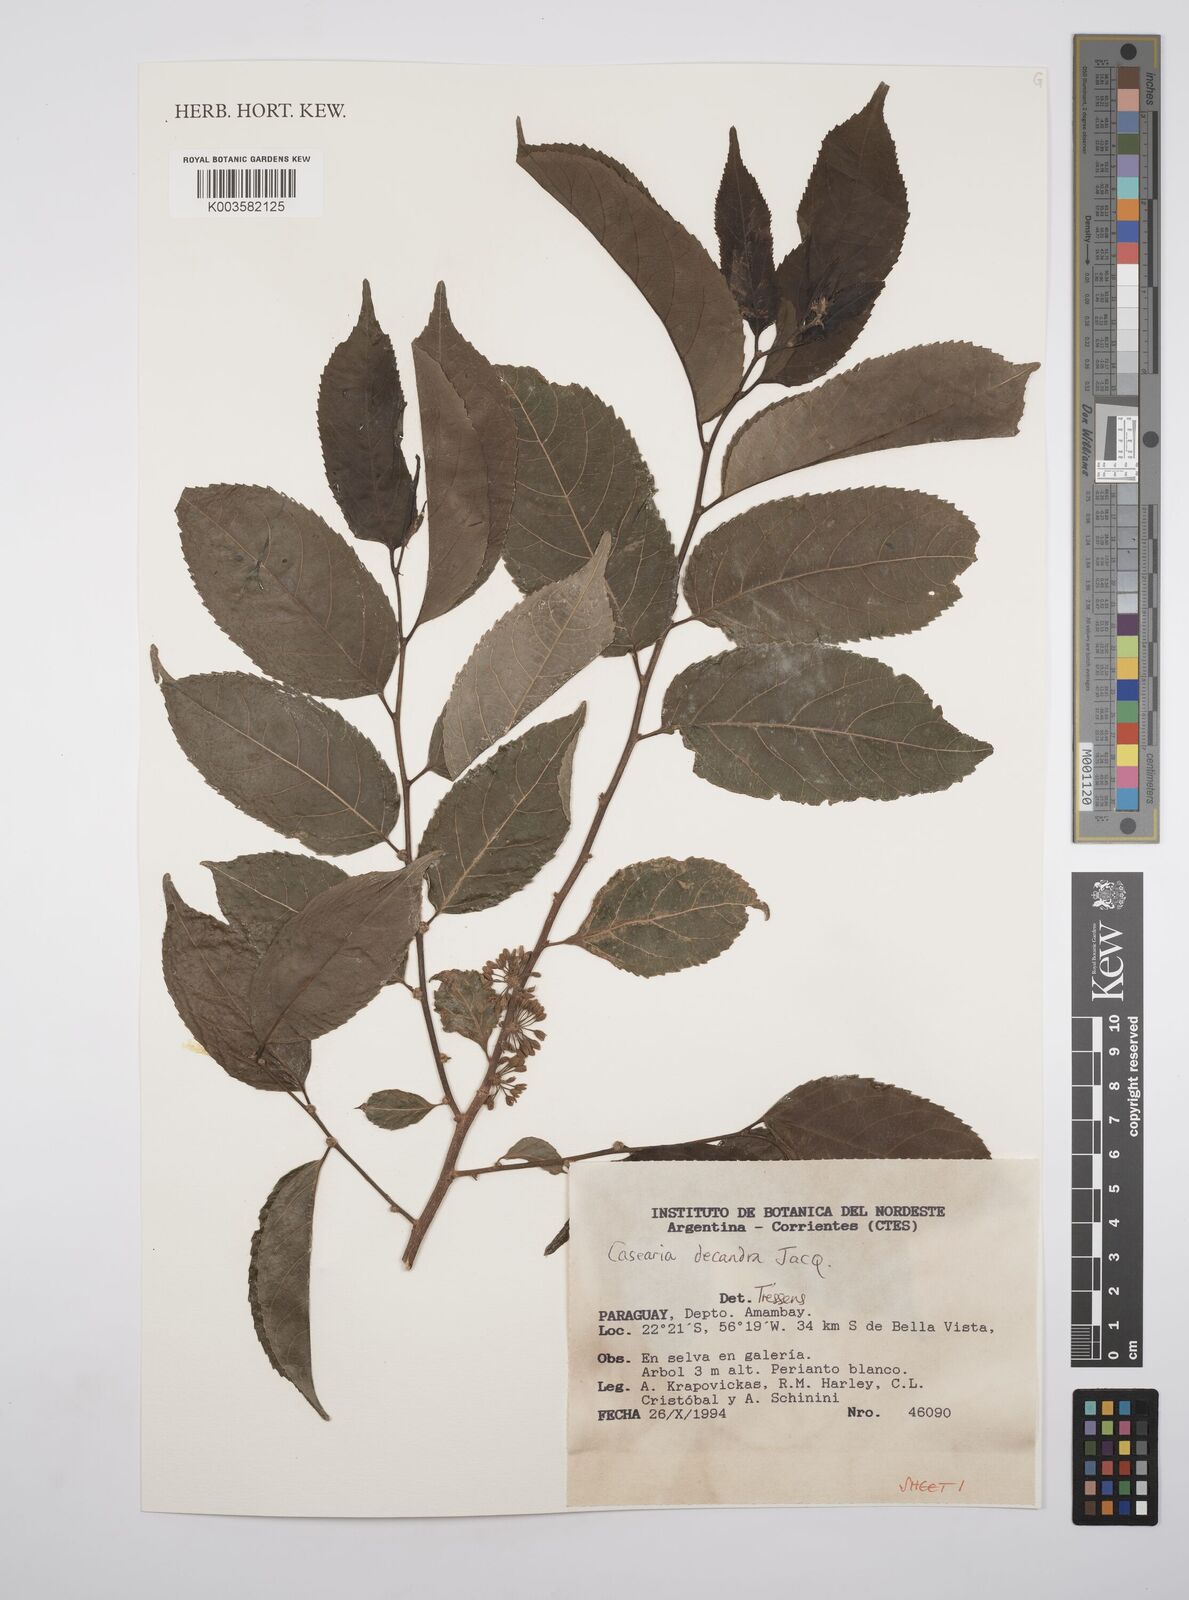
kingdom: Plantae
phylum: Tracheophyta
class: Magnoliopsida
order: Malpighiales
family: Salicaceae
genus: Casearia
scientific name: Casearia
